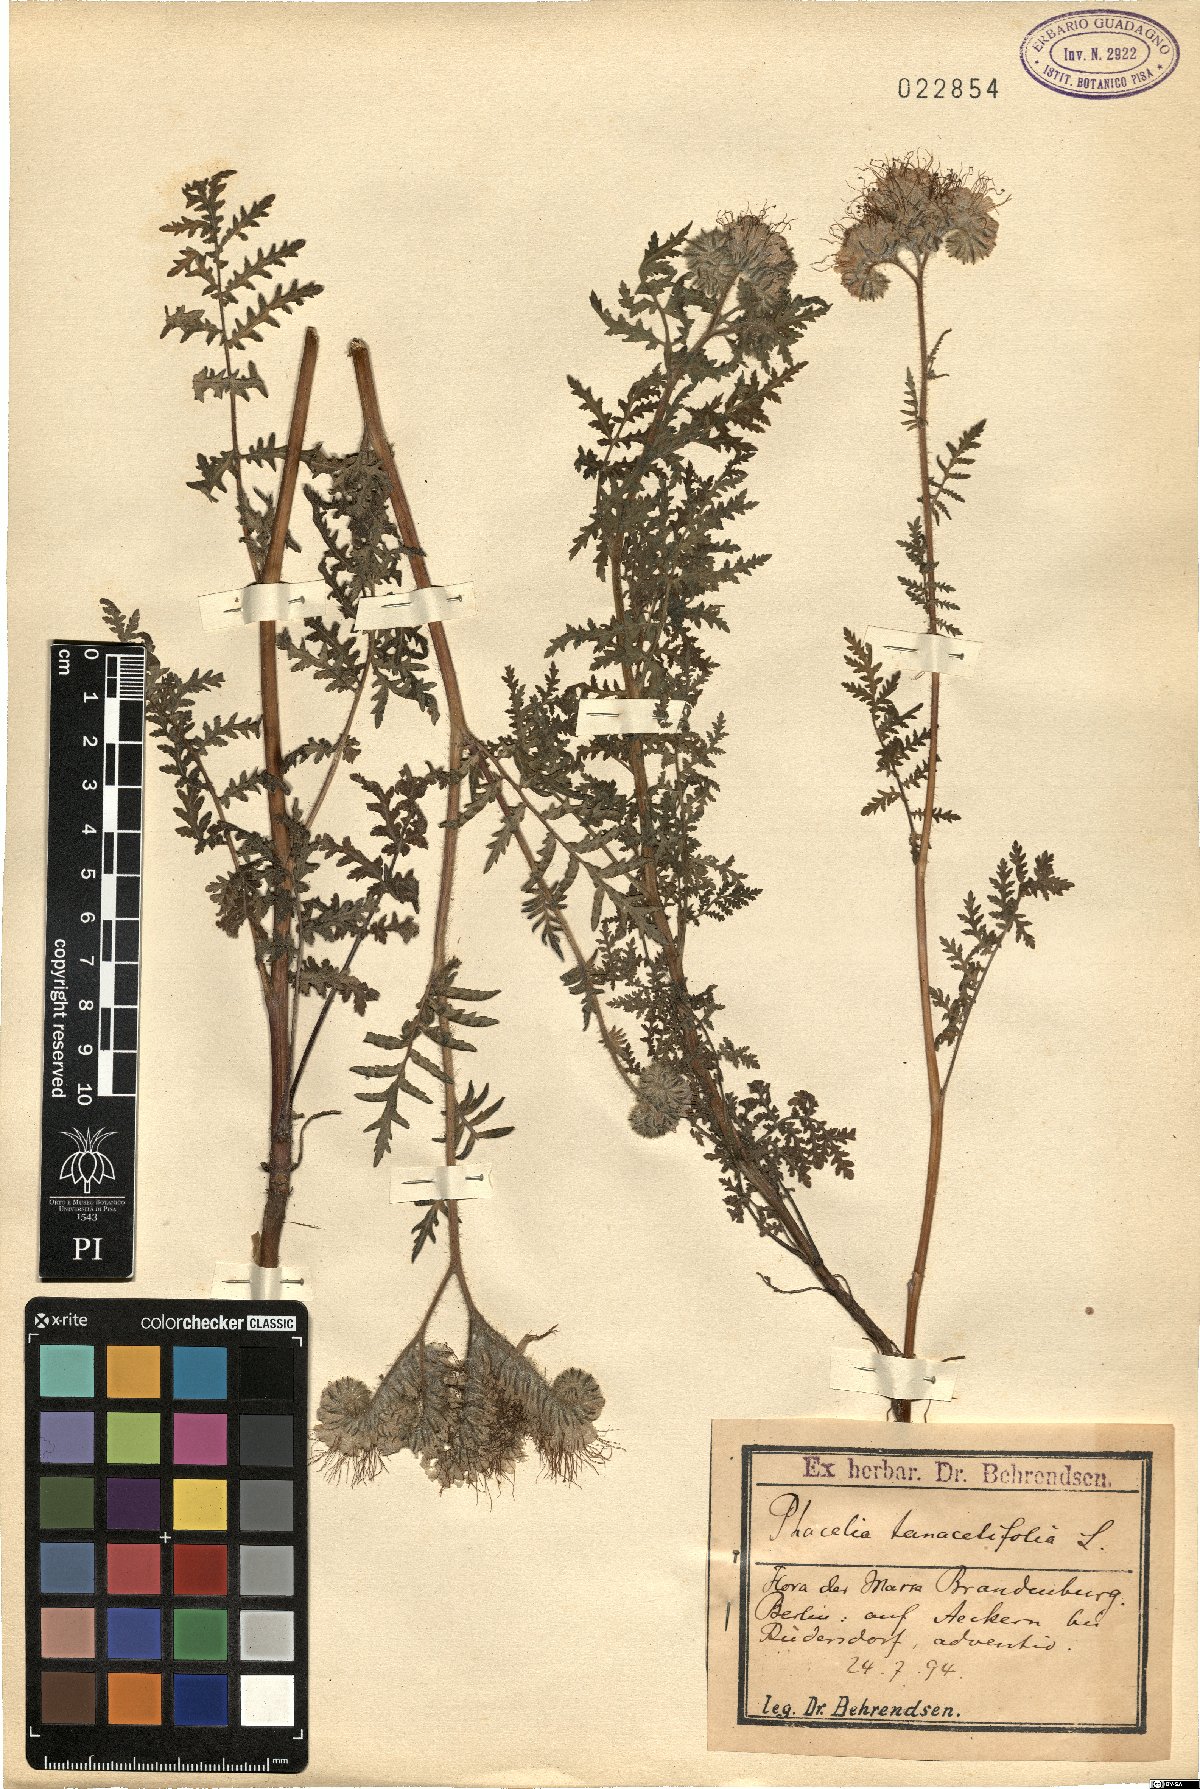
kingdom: Plantae
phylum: Tracheophyta
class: Magnoliopsida
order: Boraginales
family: Hydrophyllaceae
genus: Phacelia
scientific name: Phacelia tanacetifolia
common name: Phacelia
